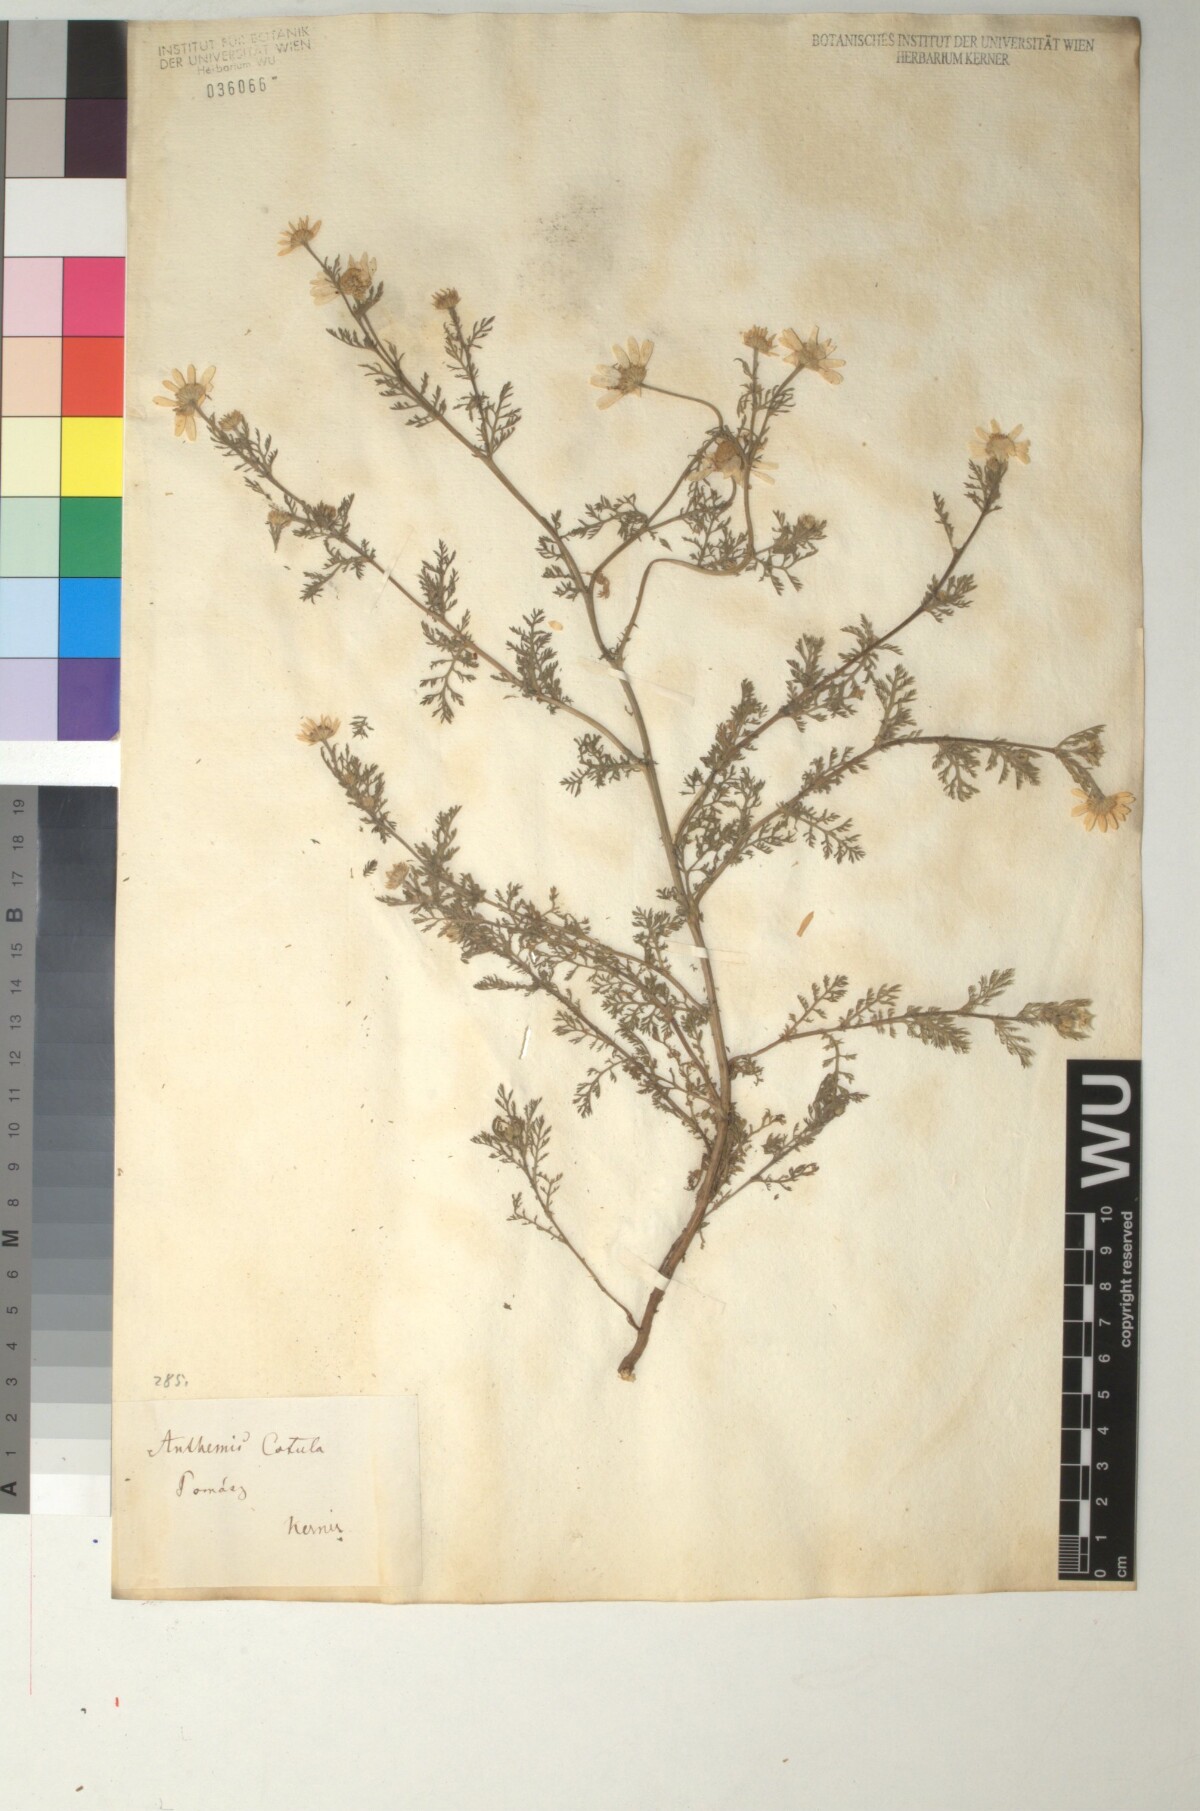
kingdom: Plantae
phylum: Tracheophyta
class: Magnoliopsida
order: Asterales
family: Asteraceae
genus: Anthemis
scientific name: Anthemis cotula
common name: Stinking chamomile
